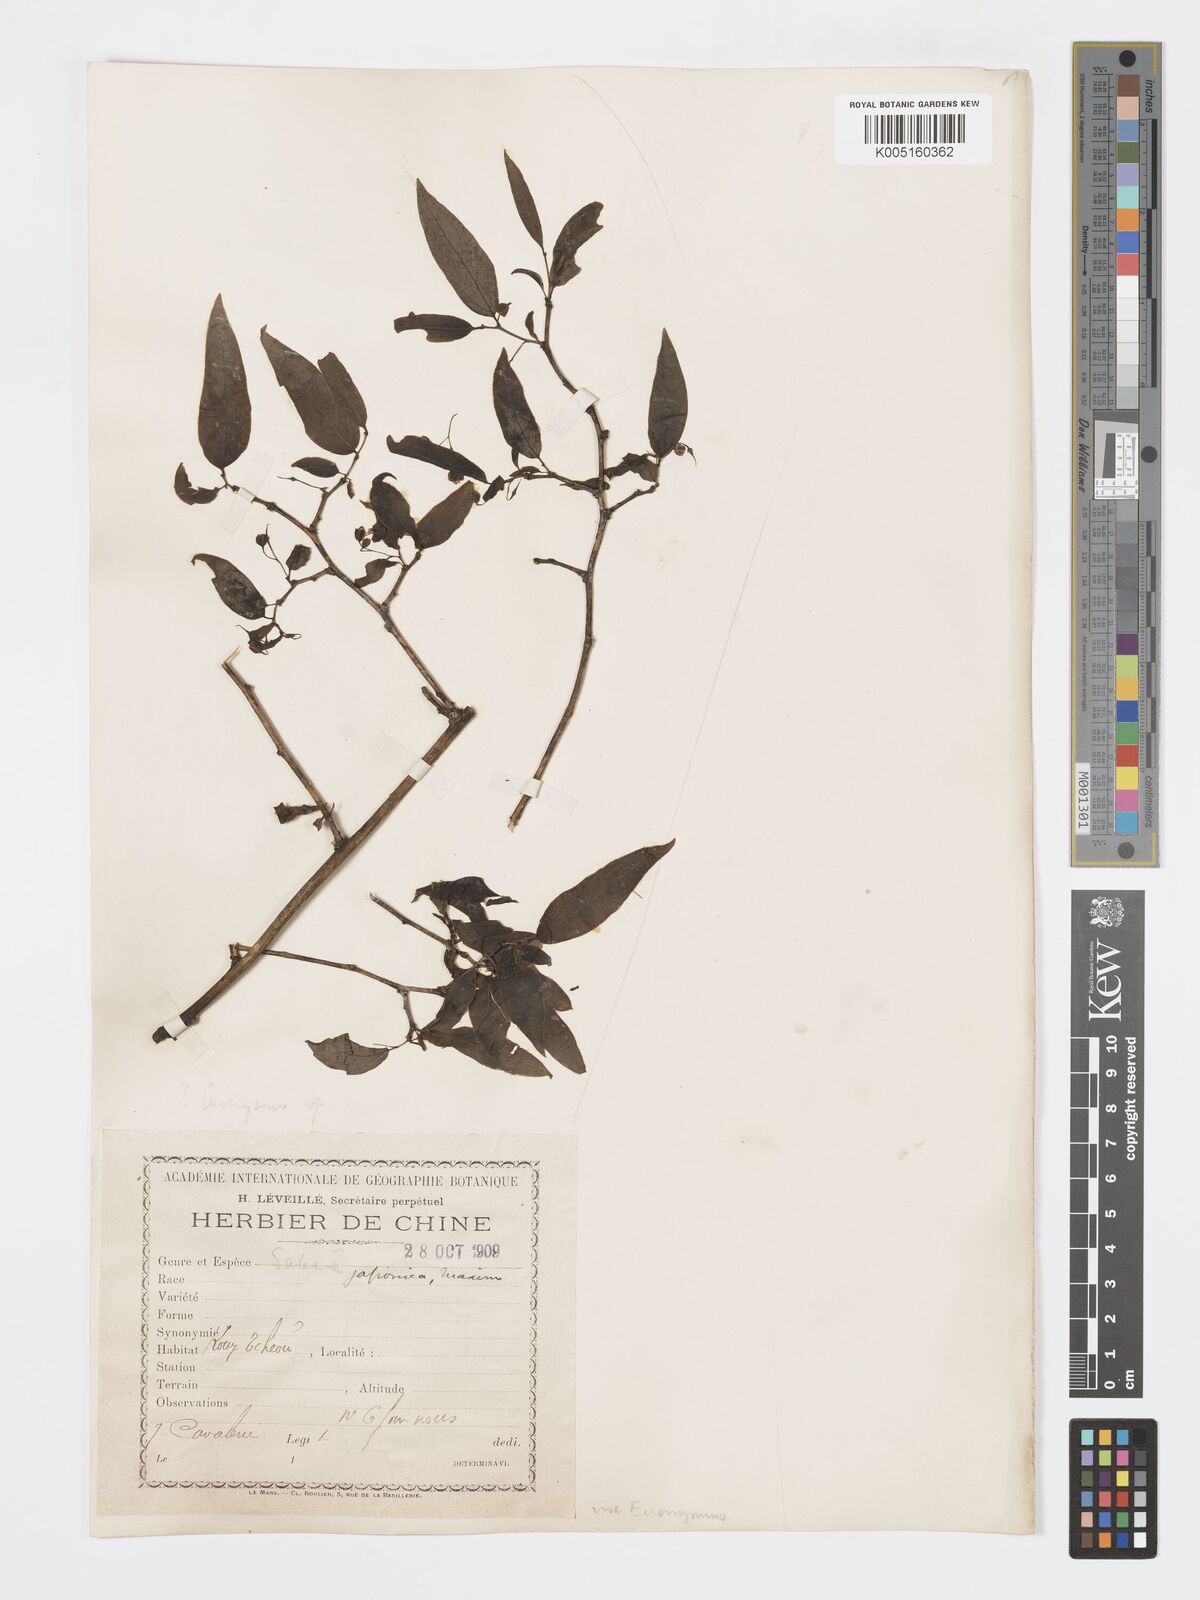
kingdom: Plantae
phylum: Tracheophyta
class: Magnoliopsida
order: Celastrales
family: Celastraceae
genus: Euonymus
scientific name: Euonymus
